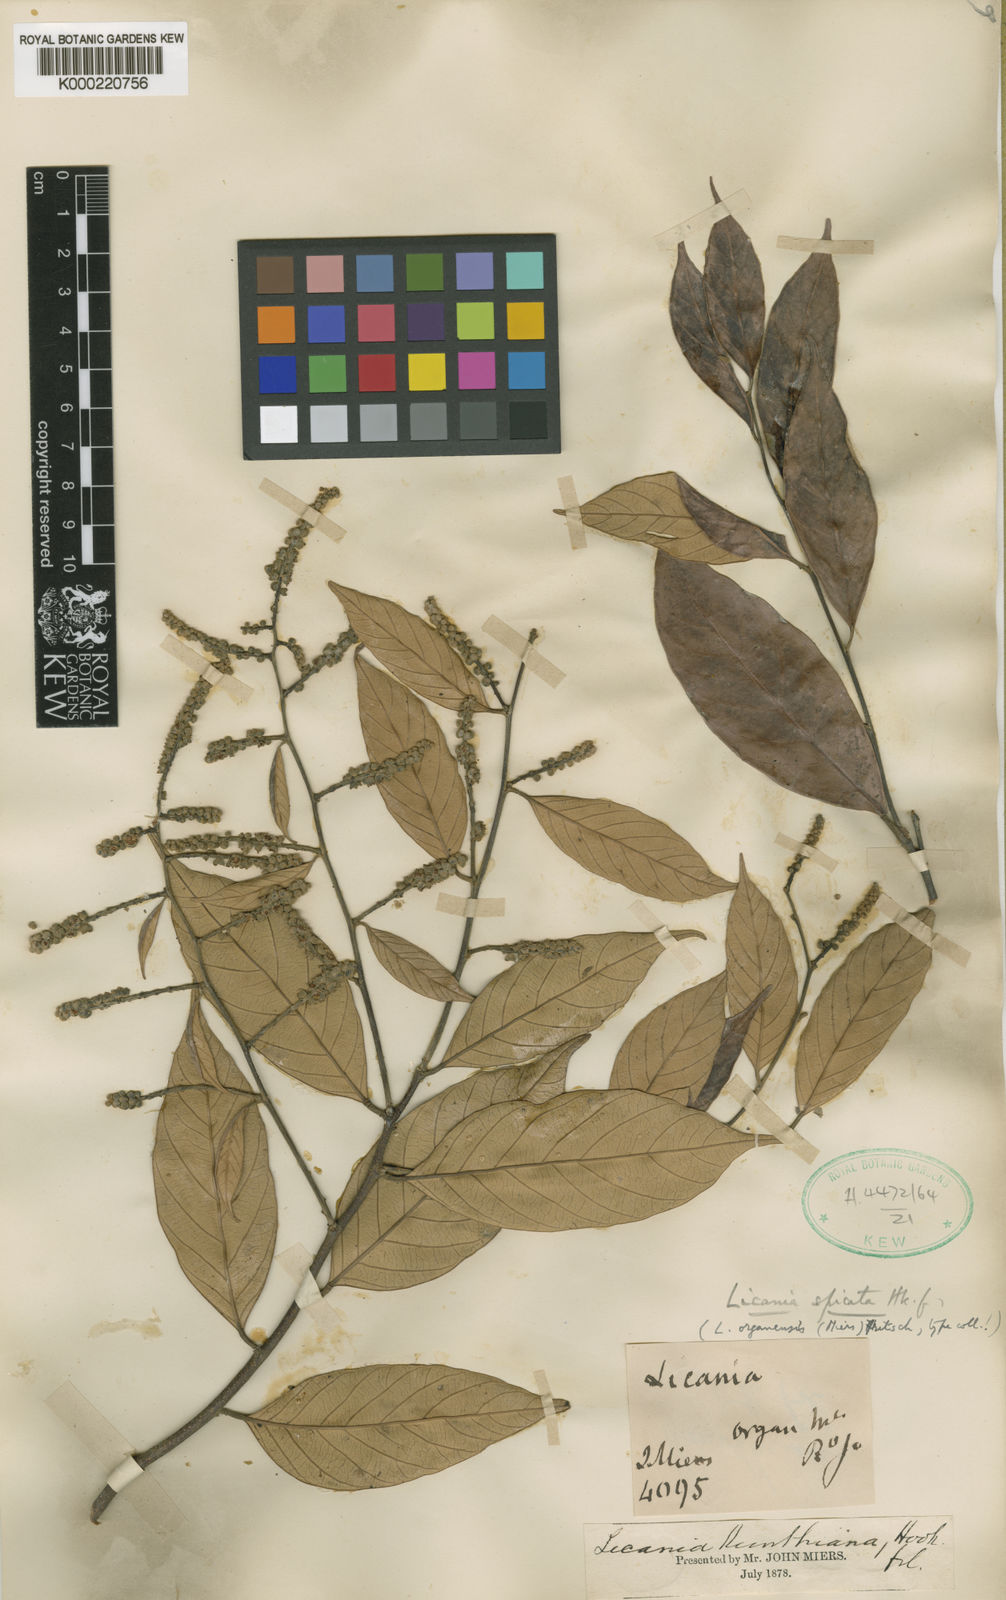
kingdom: Plantae
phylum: Tracheophyta
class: Magnoliopsida
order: Malpighiales
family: Chrysobalanaceae
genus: Licania
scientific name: Licania spicata
